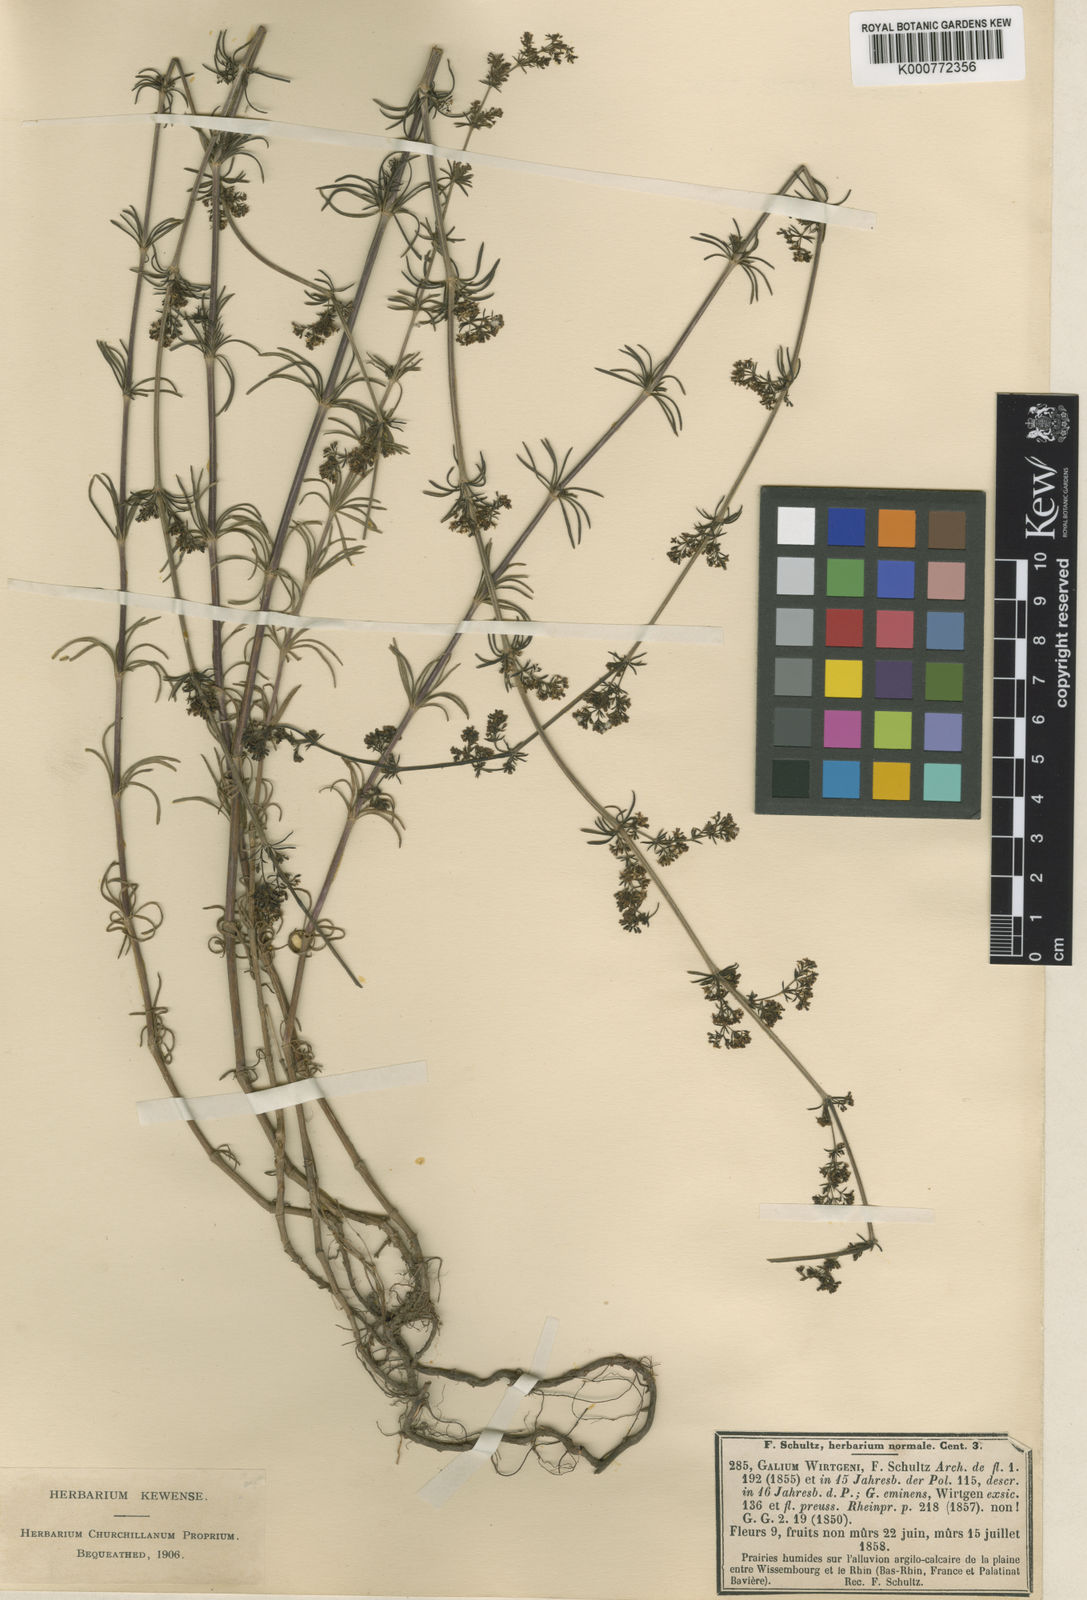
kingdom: Plantae
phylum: Tracheophyta
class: Magnoliopsida
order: Gentianales
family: Rubiaceae
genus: Galium
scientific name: Galium pomeranicum
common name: Bedstraw
